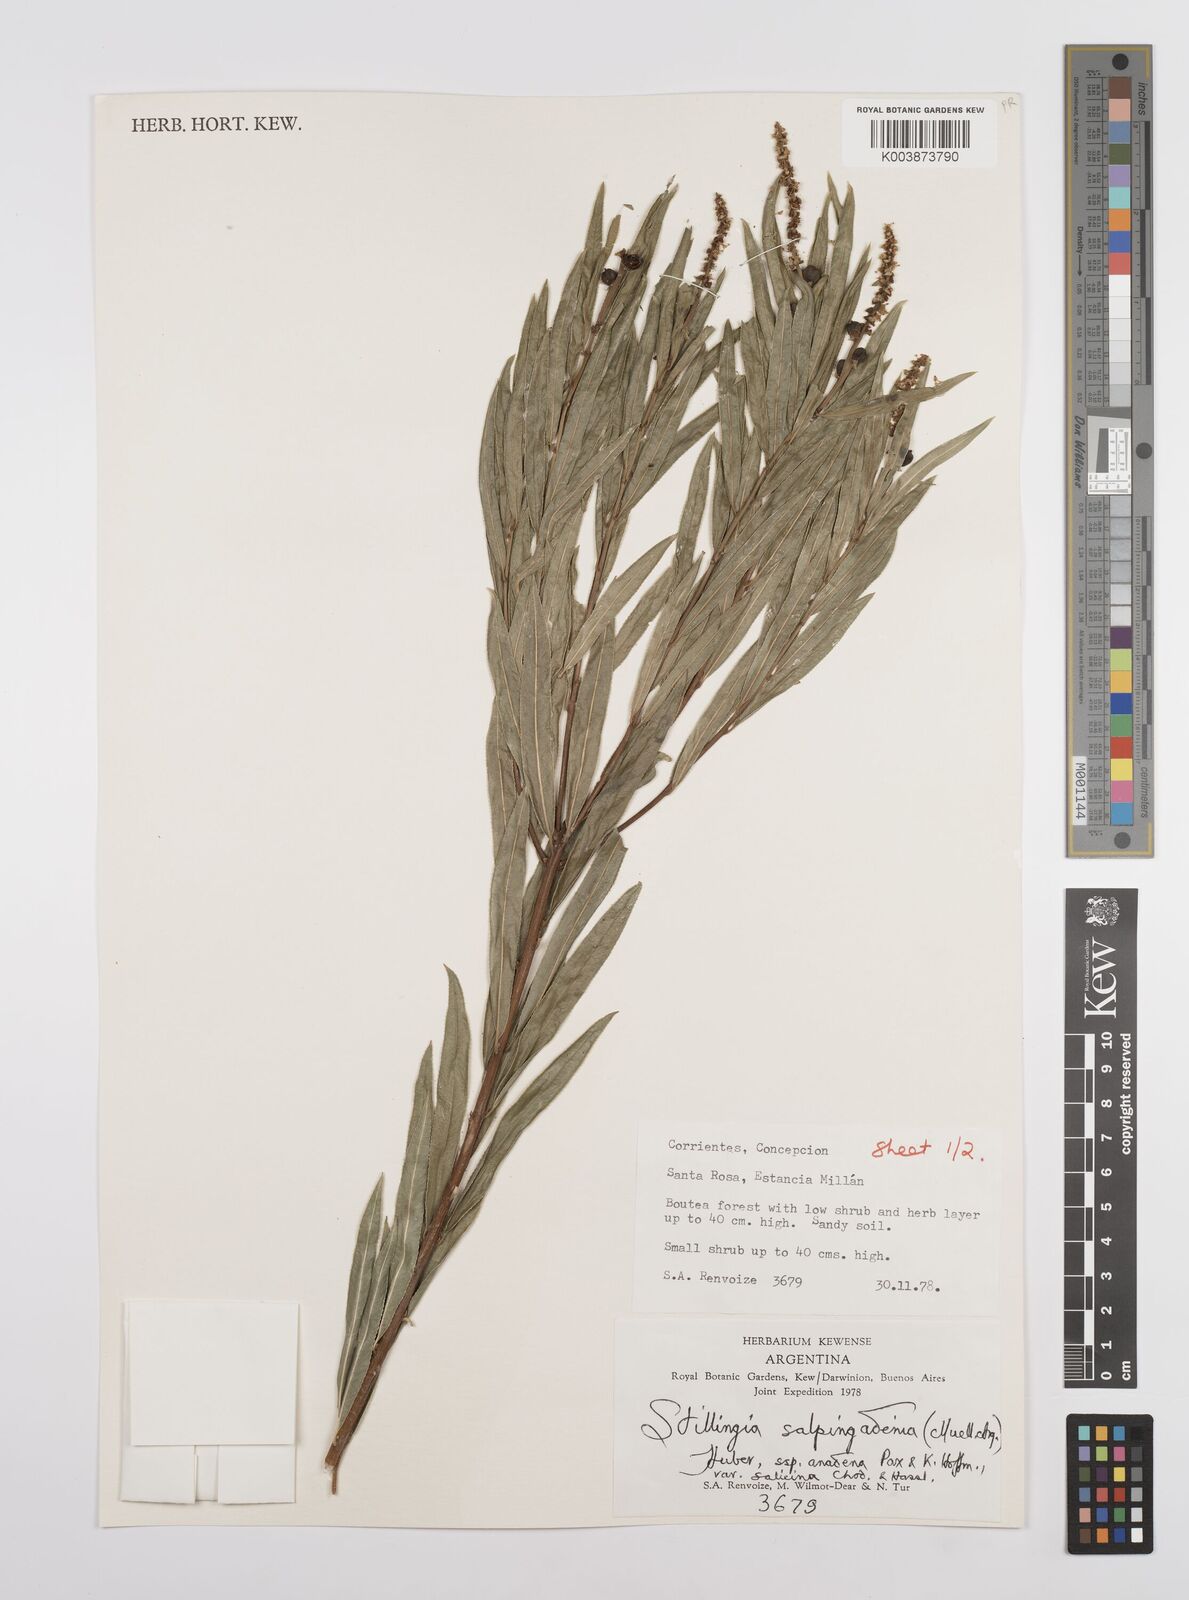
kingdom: Plantae
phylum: Tracheophyta
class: Magnoliopsida
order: Malpighiales
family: Euphorbiaceae
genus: Stillingia
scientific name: Stillingia salpingadenia
